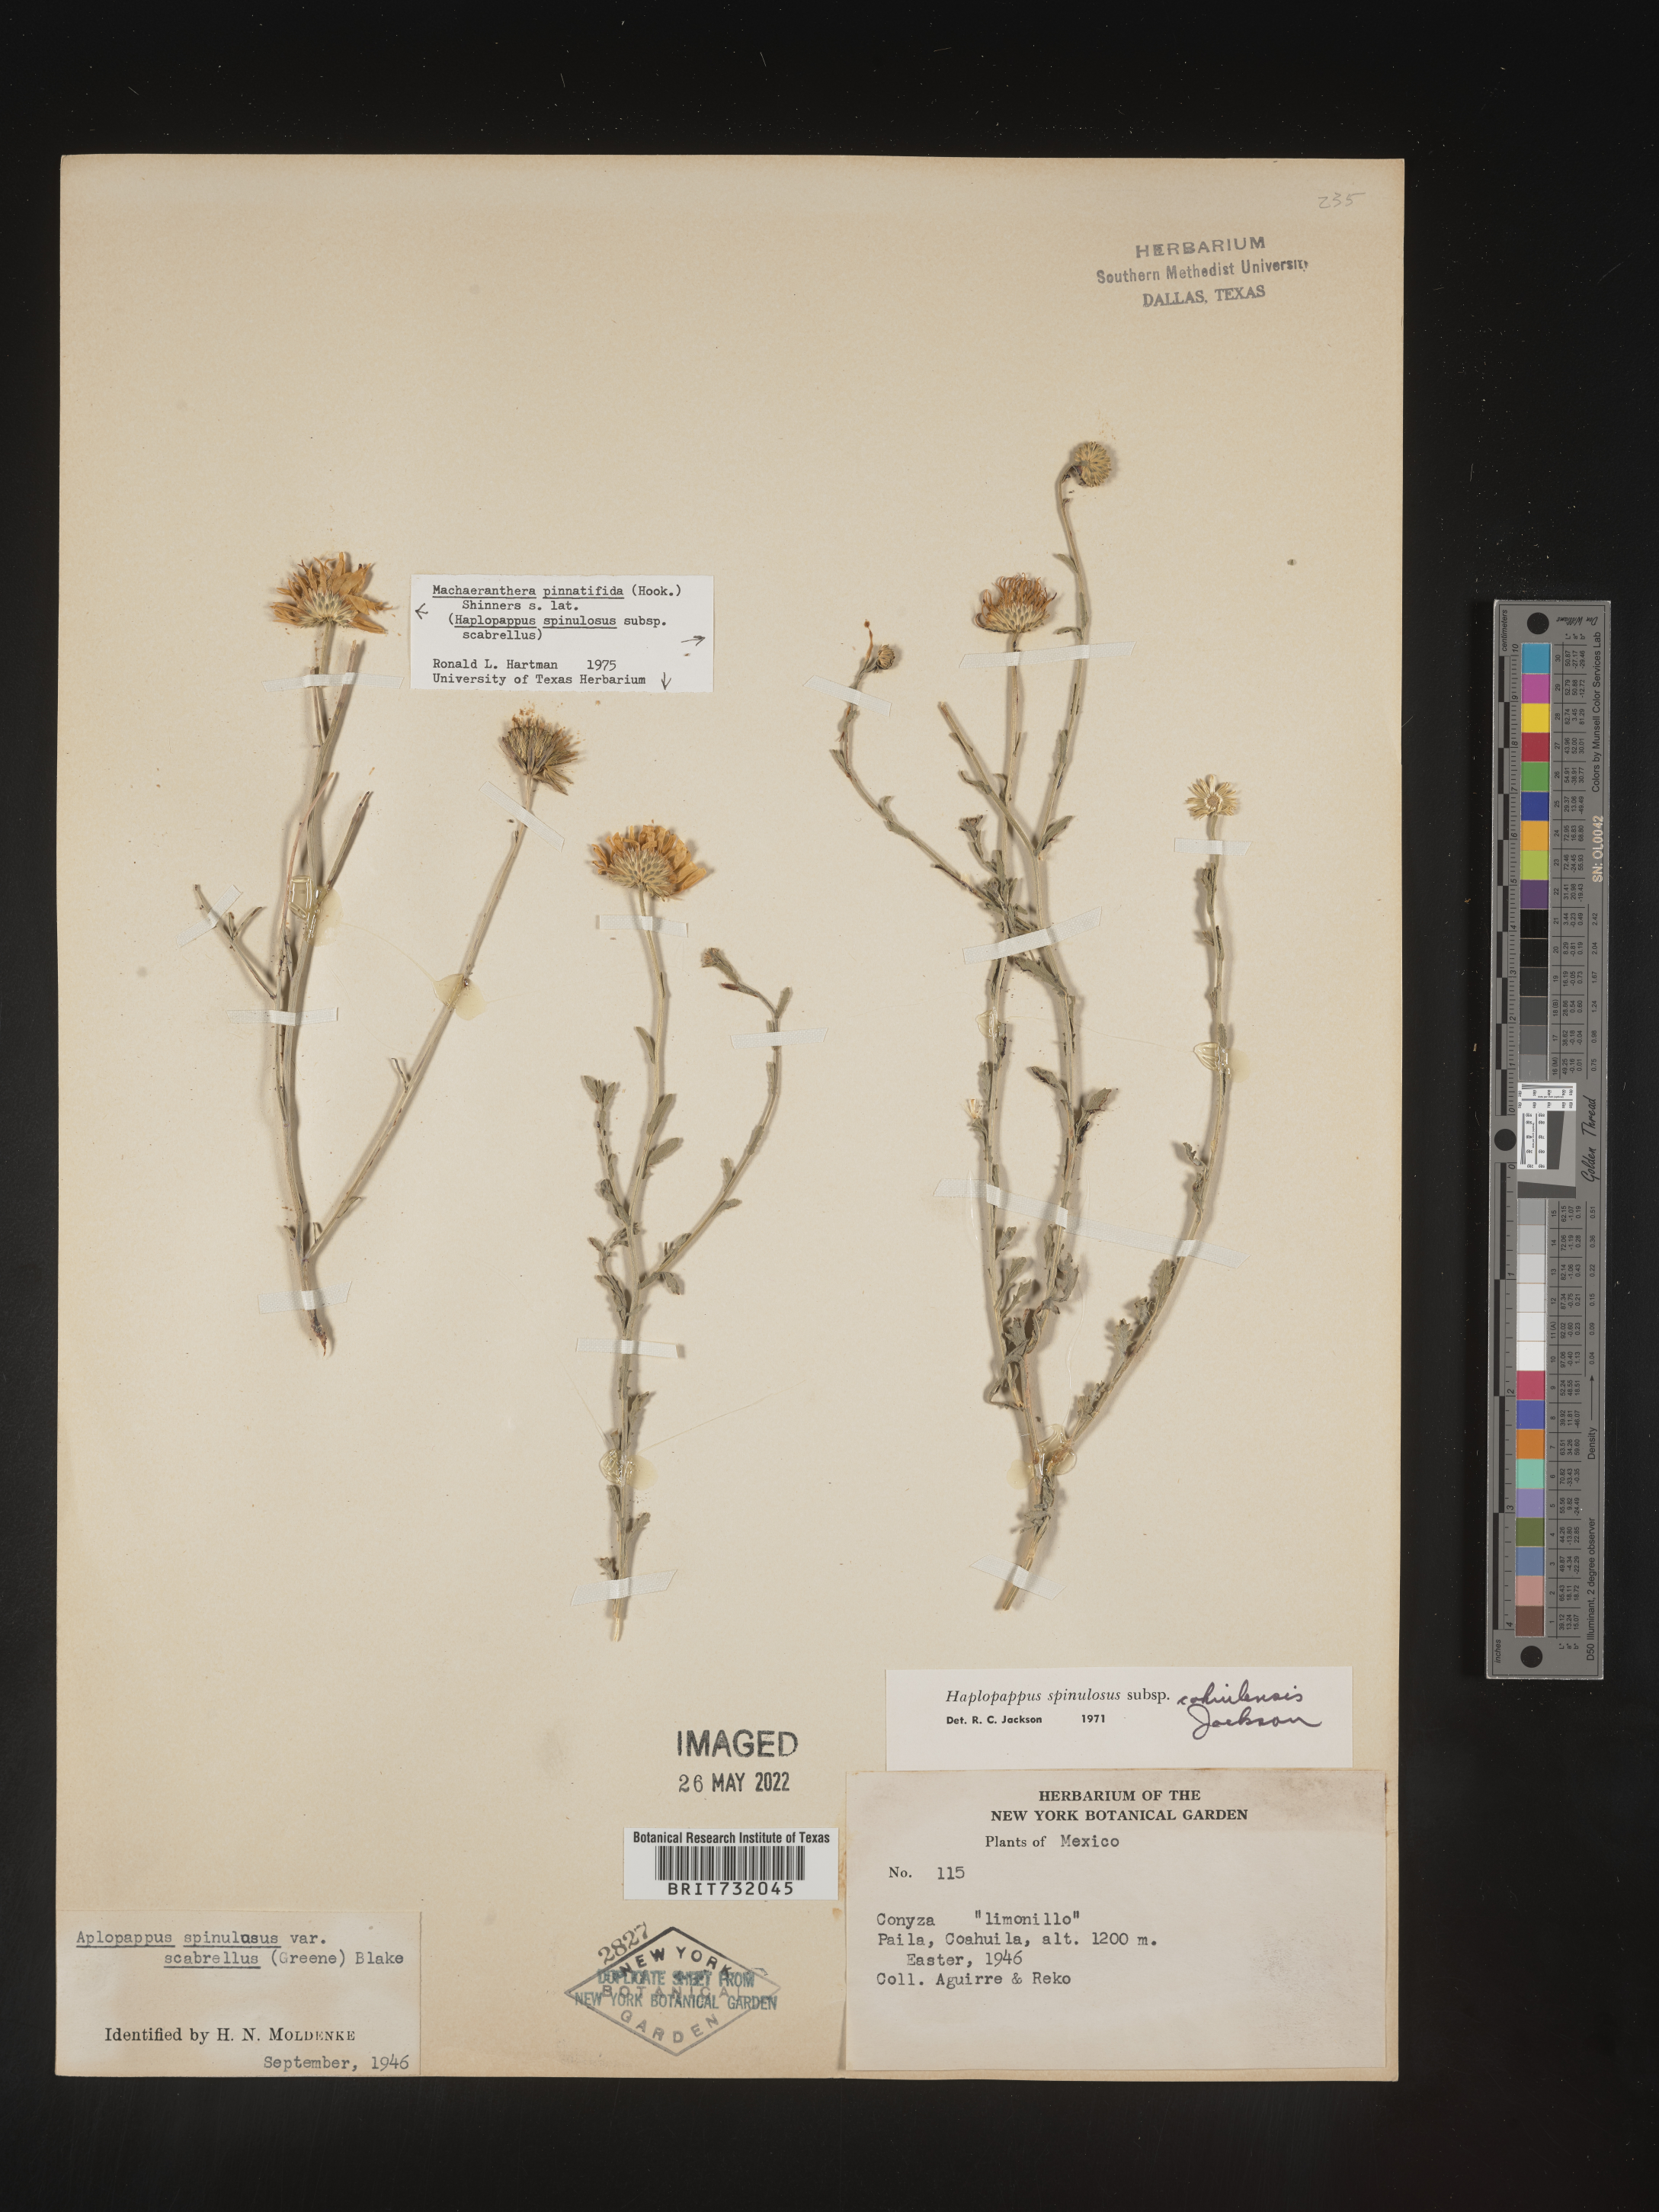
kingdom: Plantae
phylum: Tracheophyta
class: Magnoliopsida
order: Asterales
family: Asteraceae
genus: Haplopappus
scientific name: Haplopappus spinulosus
